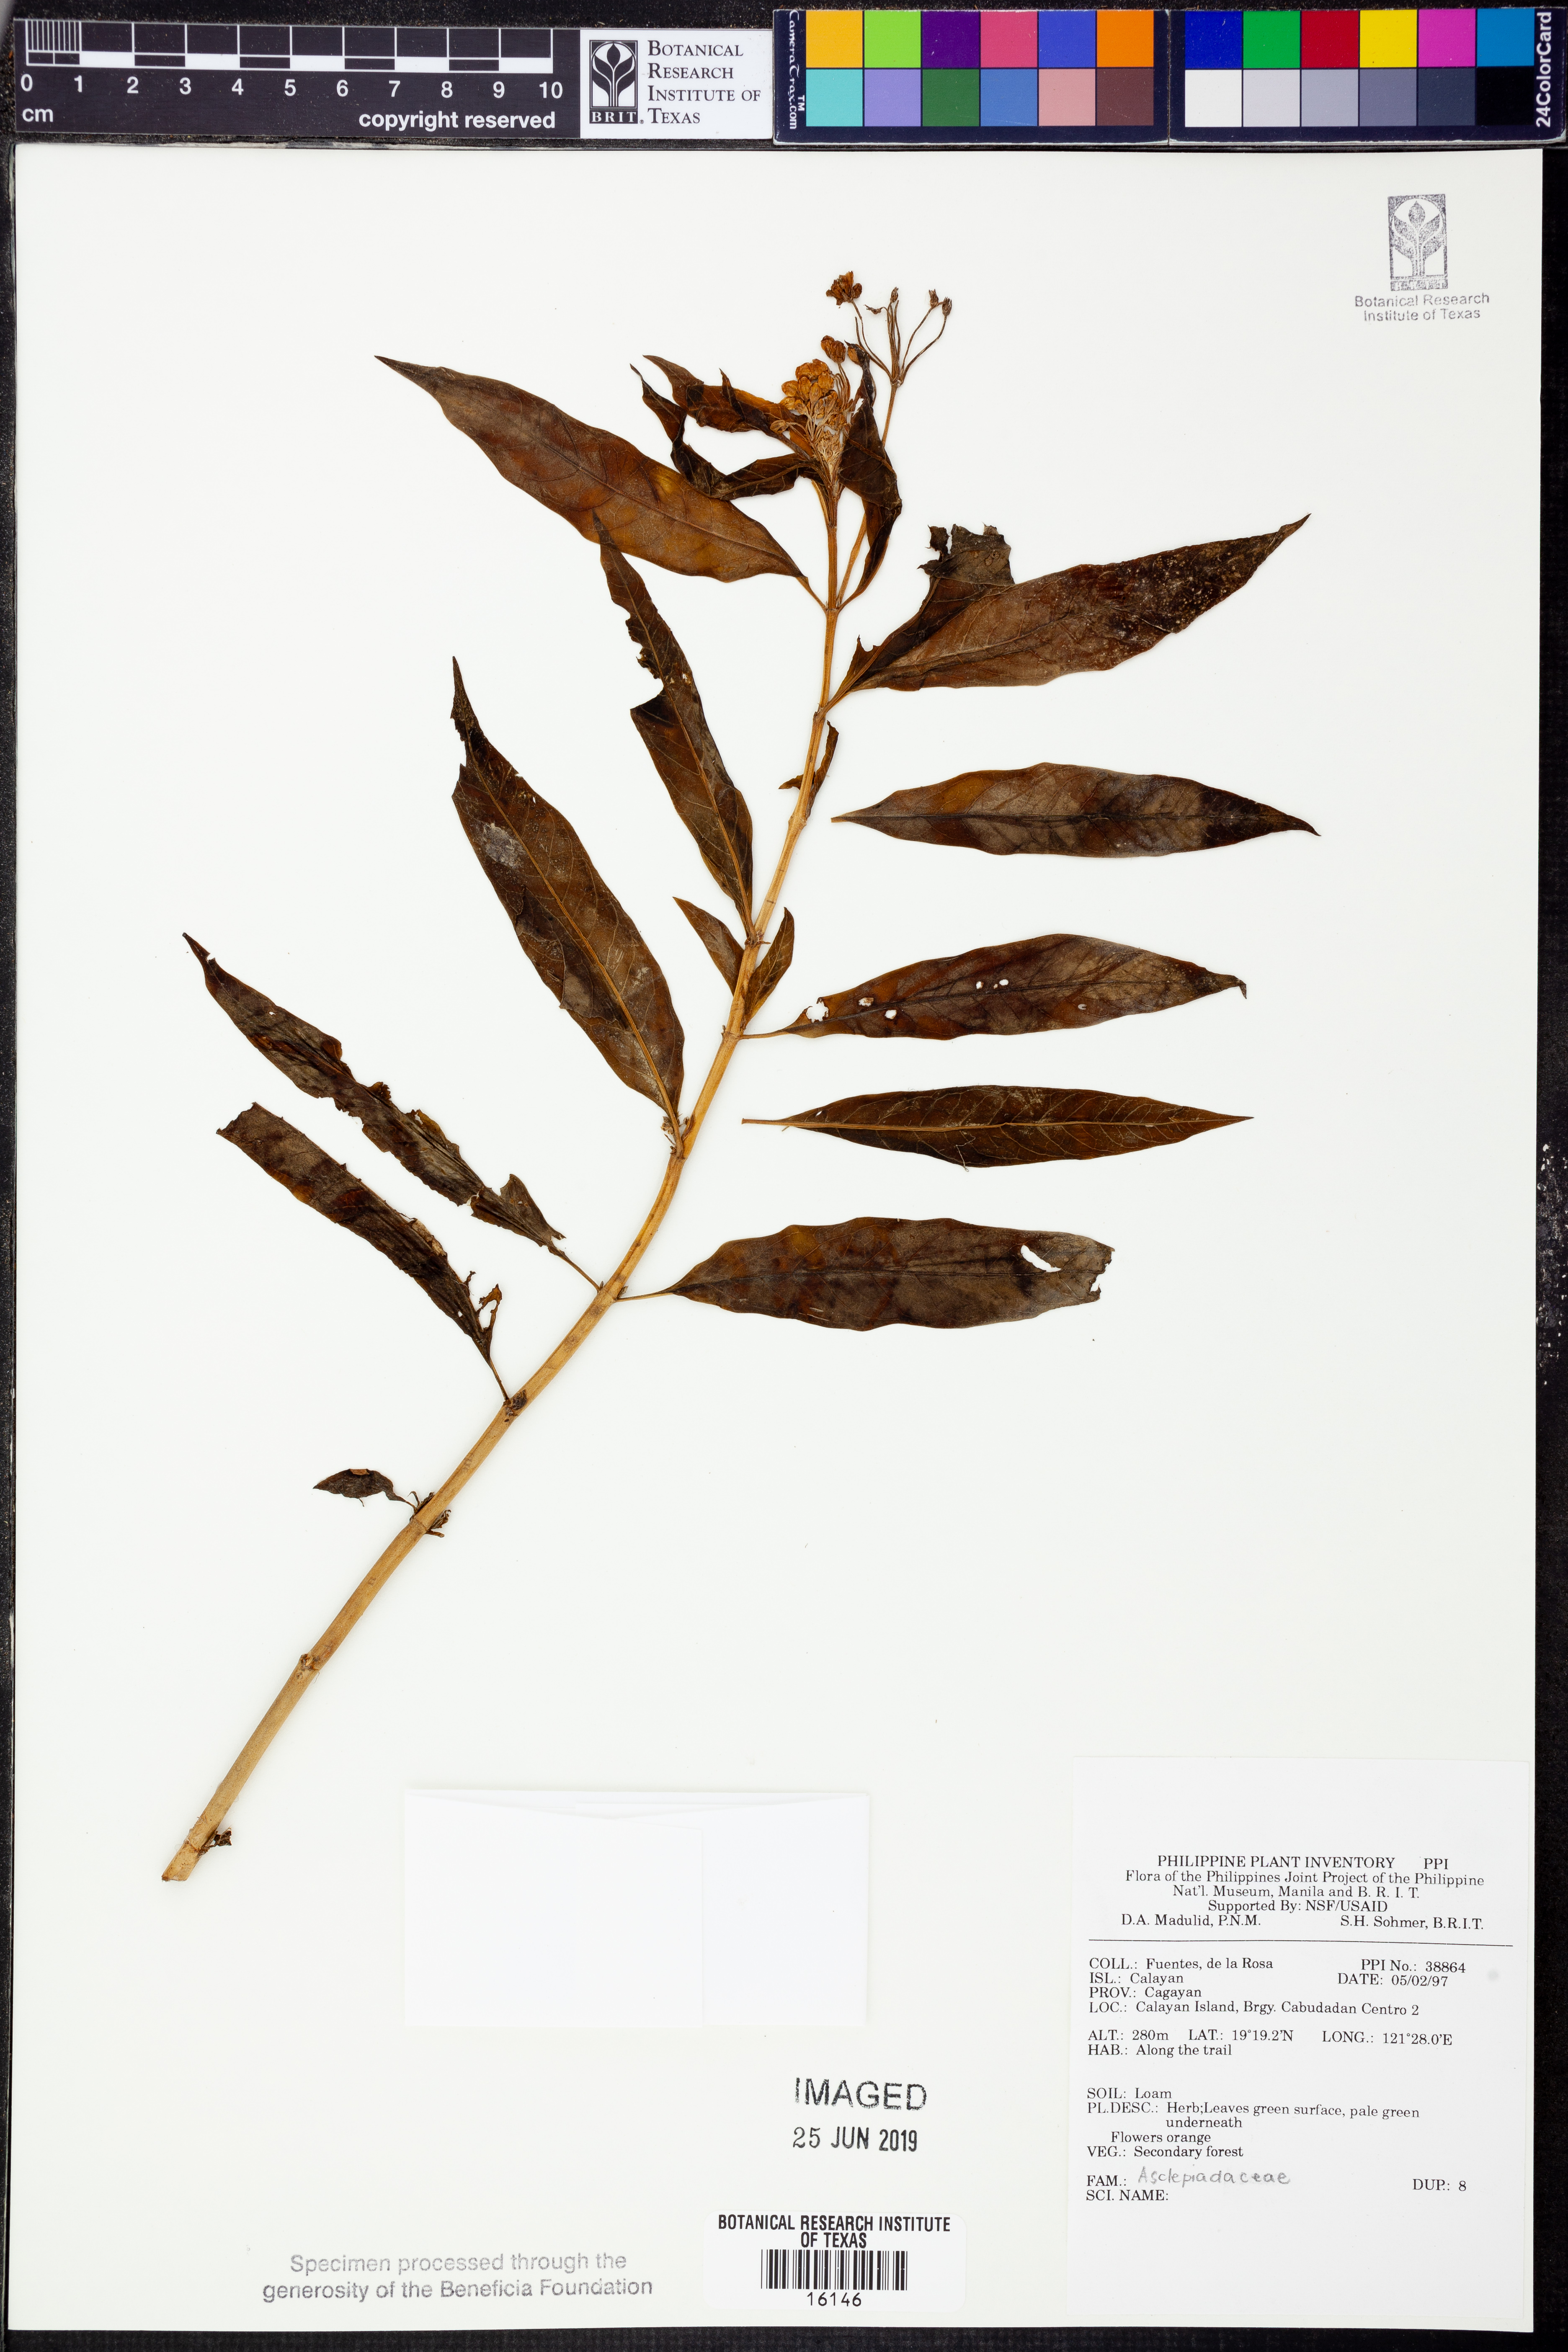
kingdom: Plantae
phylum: Tracheophyta
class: Magnoliopsida
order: Gentianales
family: Apocynaceae
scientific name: Apocynaceae
